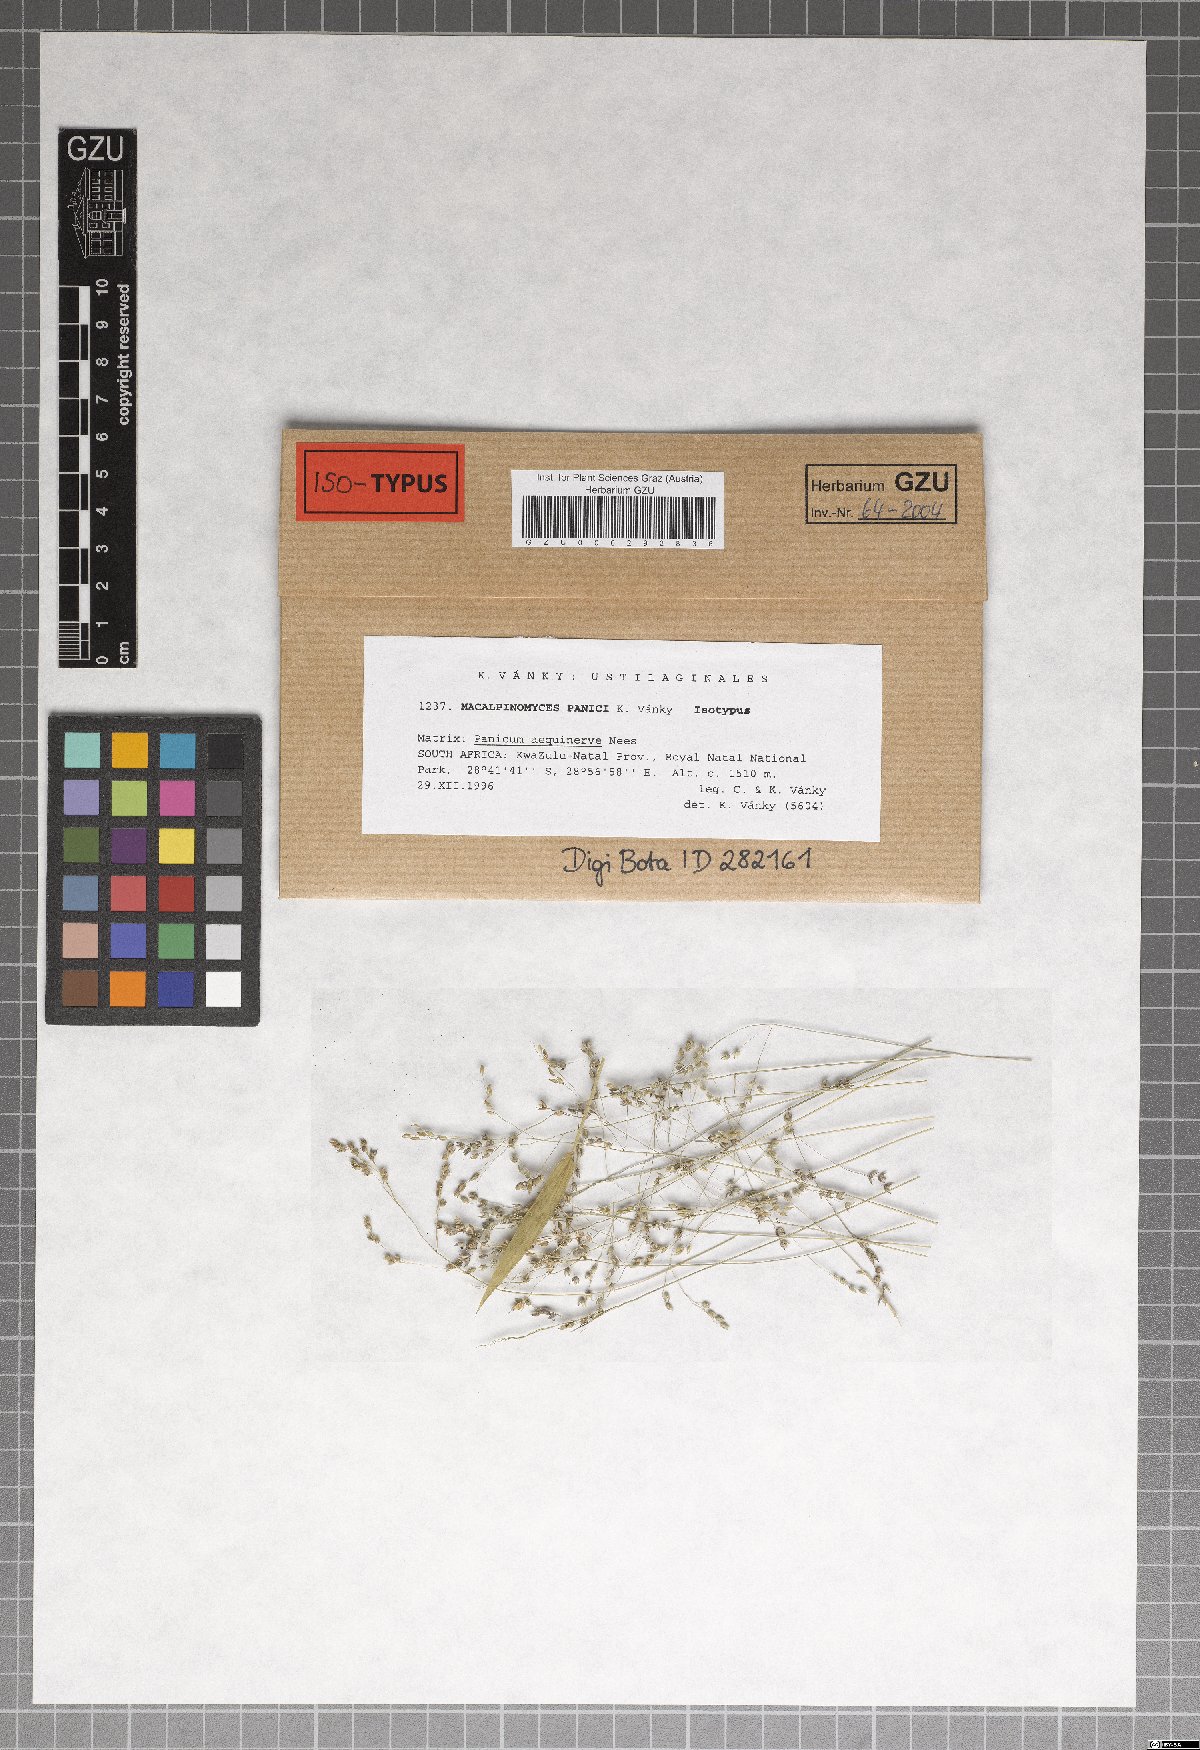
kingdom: Fungi
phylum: Basidiomycota
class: Ustilaginomycetes
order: Ustilaginales
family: Ustilaginaceae
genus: Macalpinomyces
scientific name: Macalpinomyces panici
